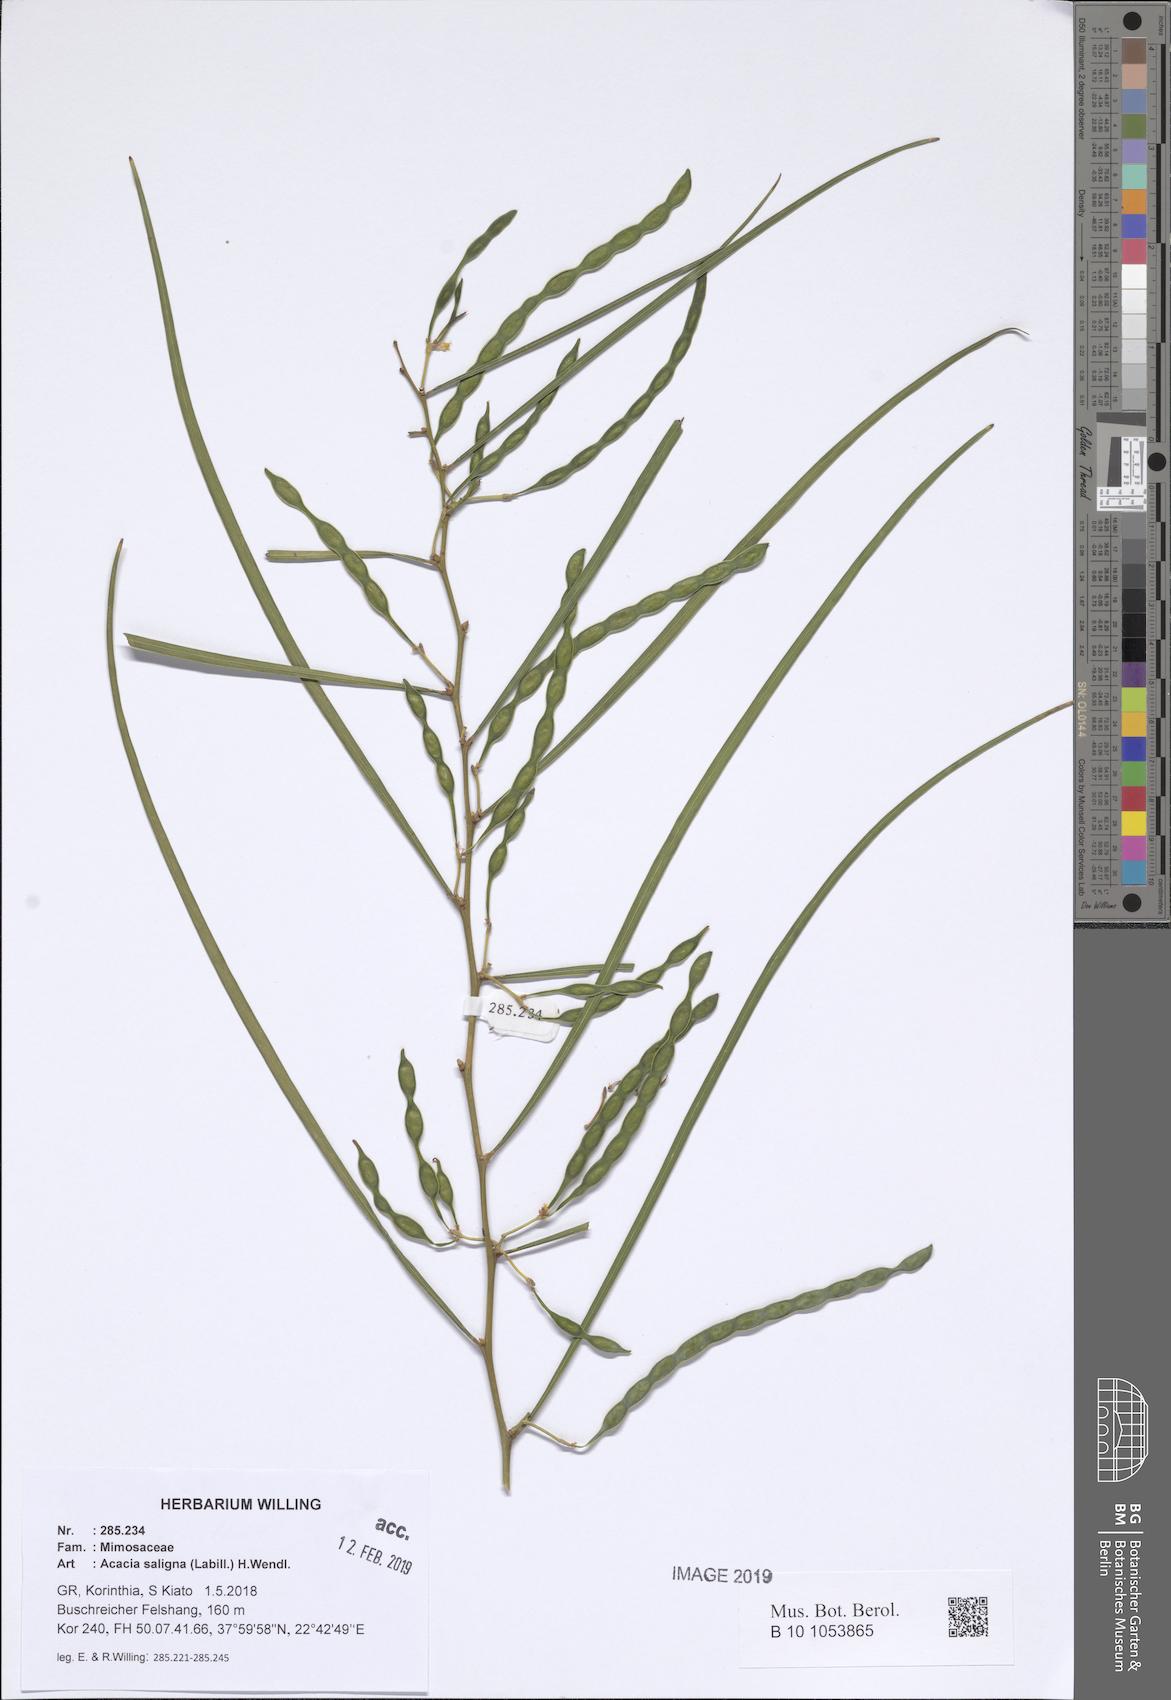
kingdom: Plantae
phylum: Tracheophyta
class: Magnoliopsida
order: Fabales
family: Fabaceae
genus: Acacia
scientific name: Acacia saligna
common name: Orange wattle
